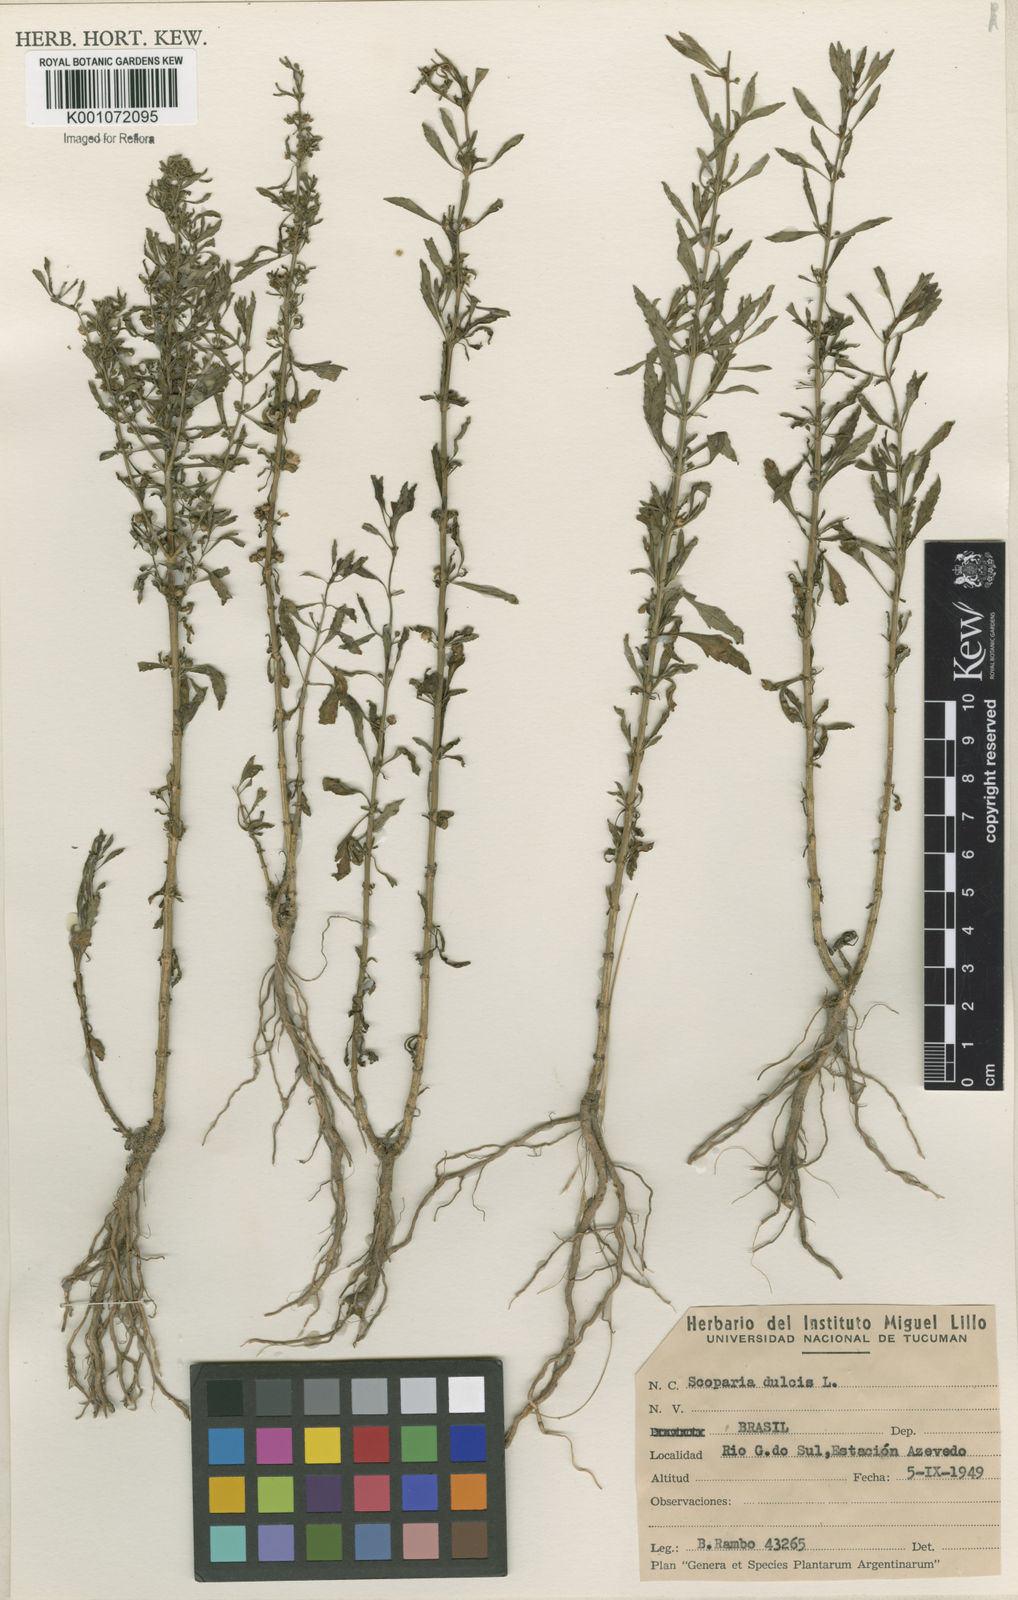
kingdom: Plantae
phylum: Tracheophyta
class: Magnoliopsida
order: Lamiales
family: Plantaginaceae
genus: Scoparia
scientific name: Scoparia dulcis
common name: Scoparia-weed
